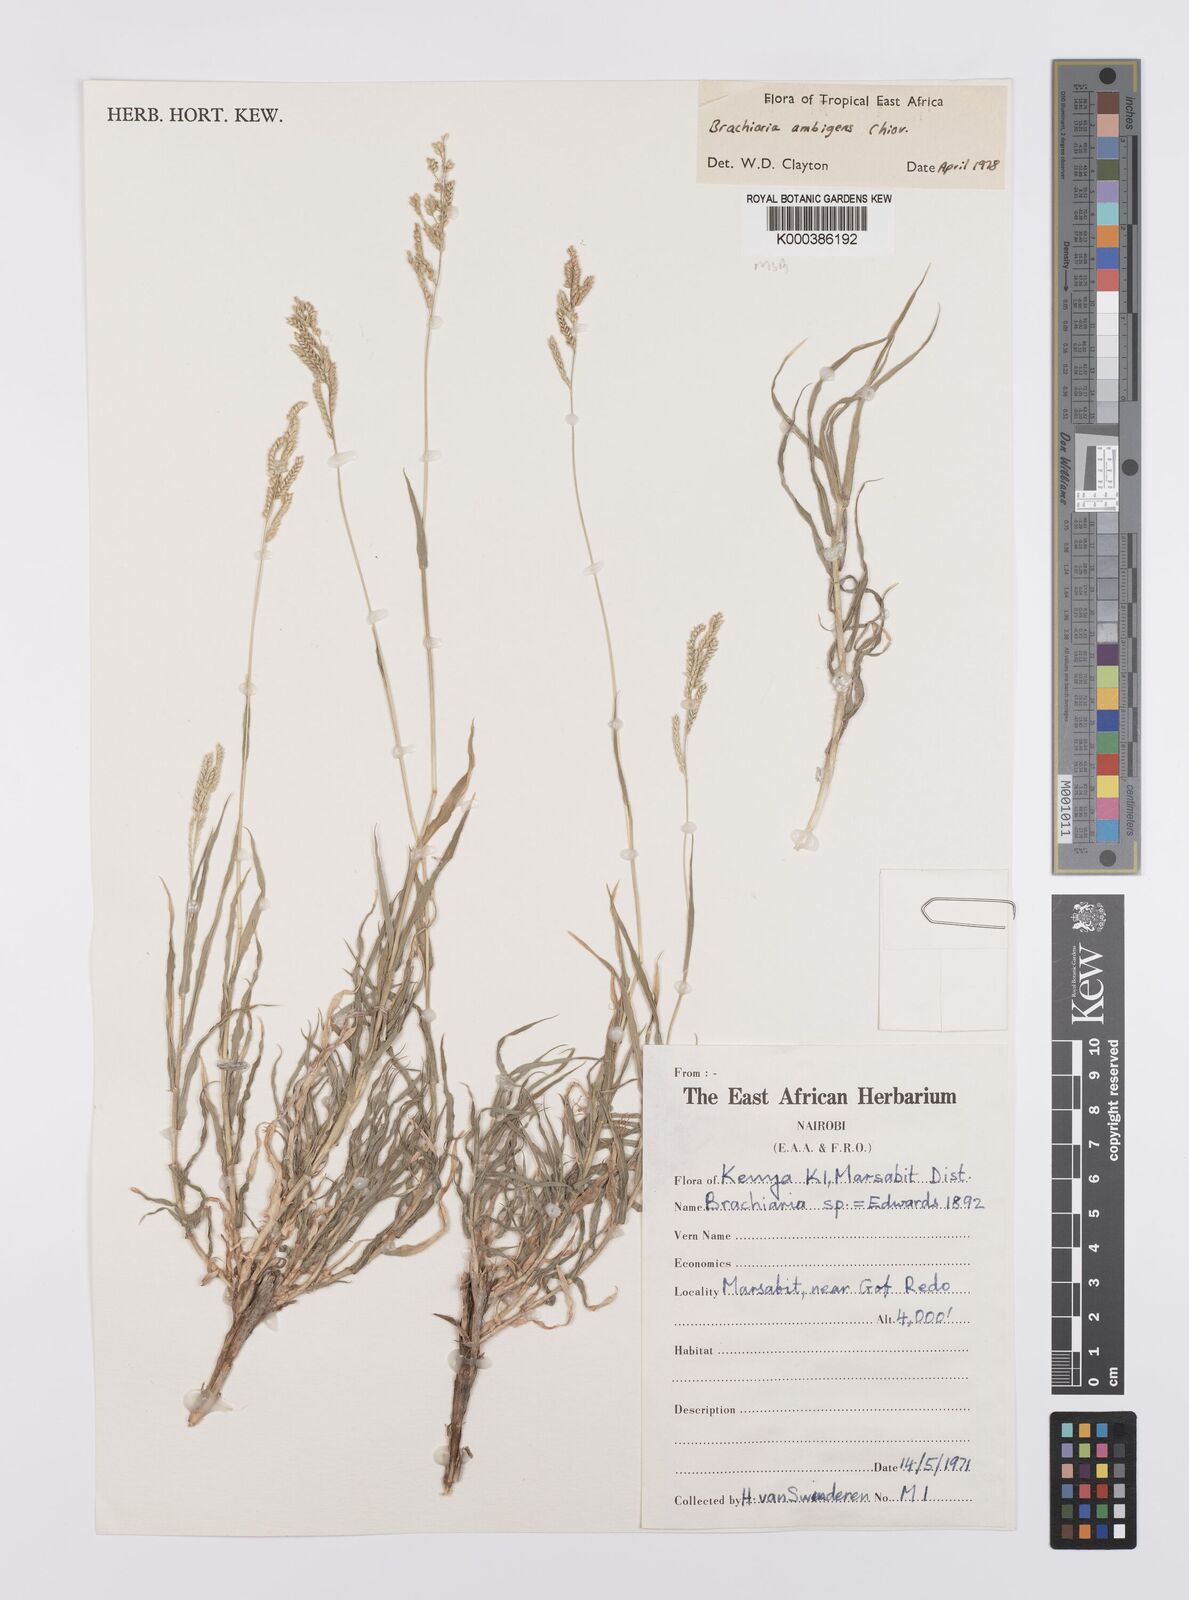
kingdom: Plantae
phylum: Tracheophyta
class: Liliopsida
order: Poales
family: Poaceae
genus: Urochloa
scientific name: Urochloa Brachiaria ambigens
